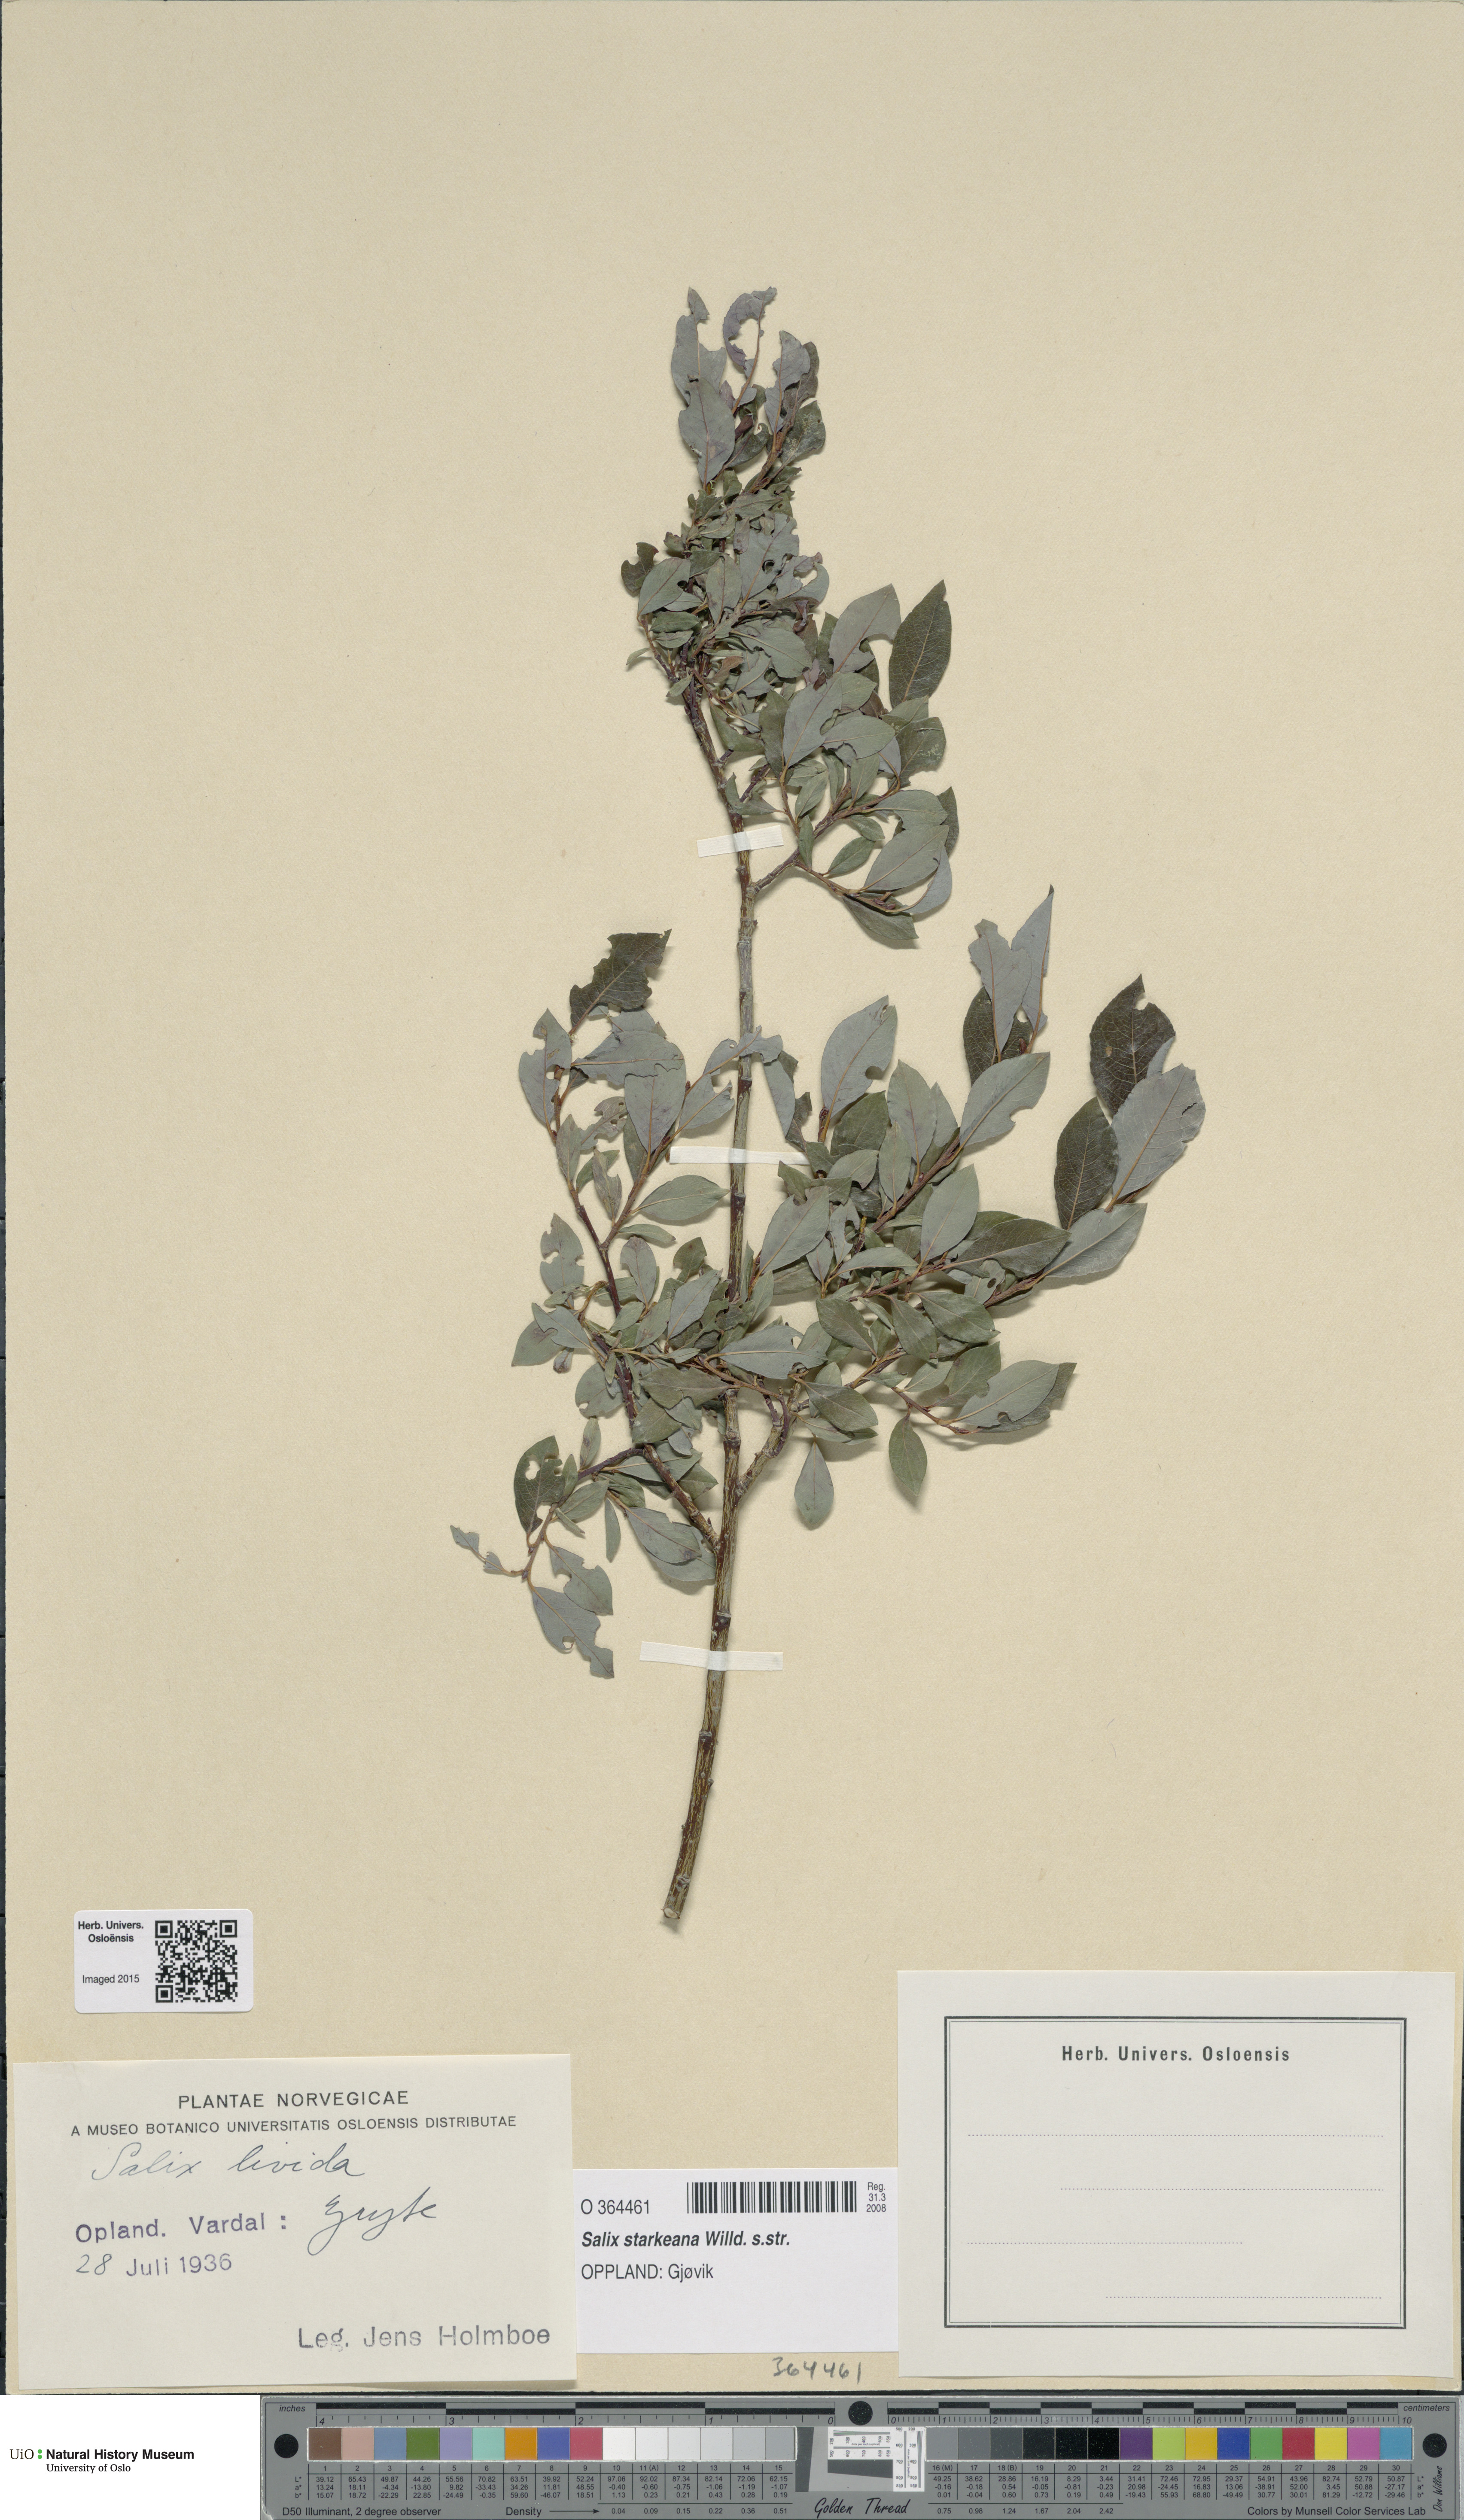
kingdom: Plantae
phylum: Tracheophyta
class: Magnoliopsida
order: Malpighiales
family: Salicaceae
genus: Salix
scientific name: Salix starkeana
